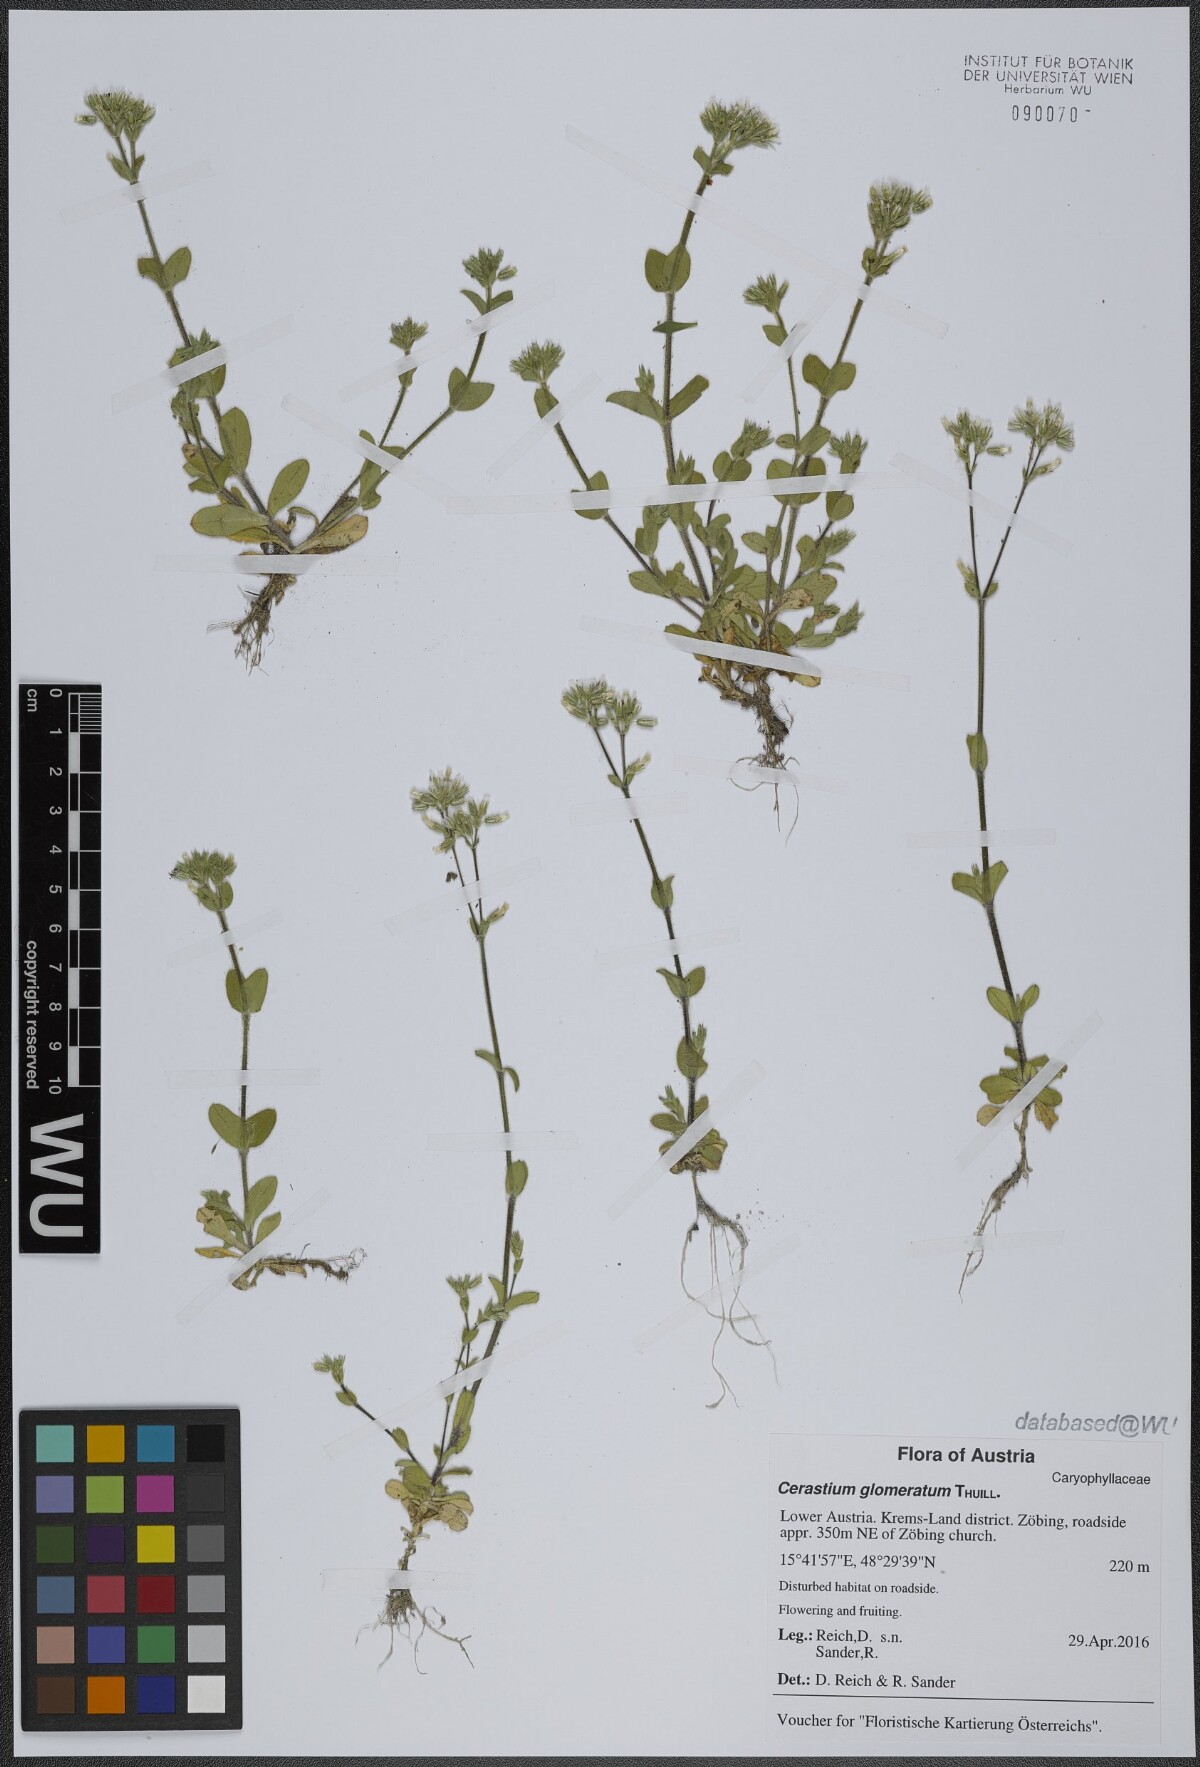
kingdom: Plantae
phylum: Tracheophyta
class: Magnoliopsida
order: Caryophyllales
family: Caryophyllaceae
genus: Cerastium
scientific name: Cerastium glomeratum
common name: Sticky chickweed
